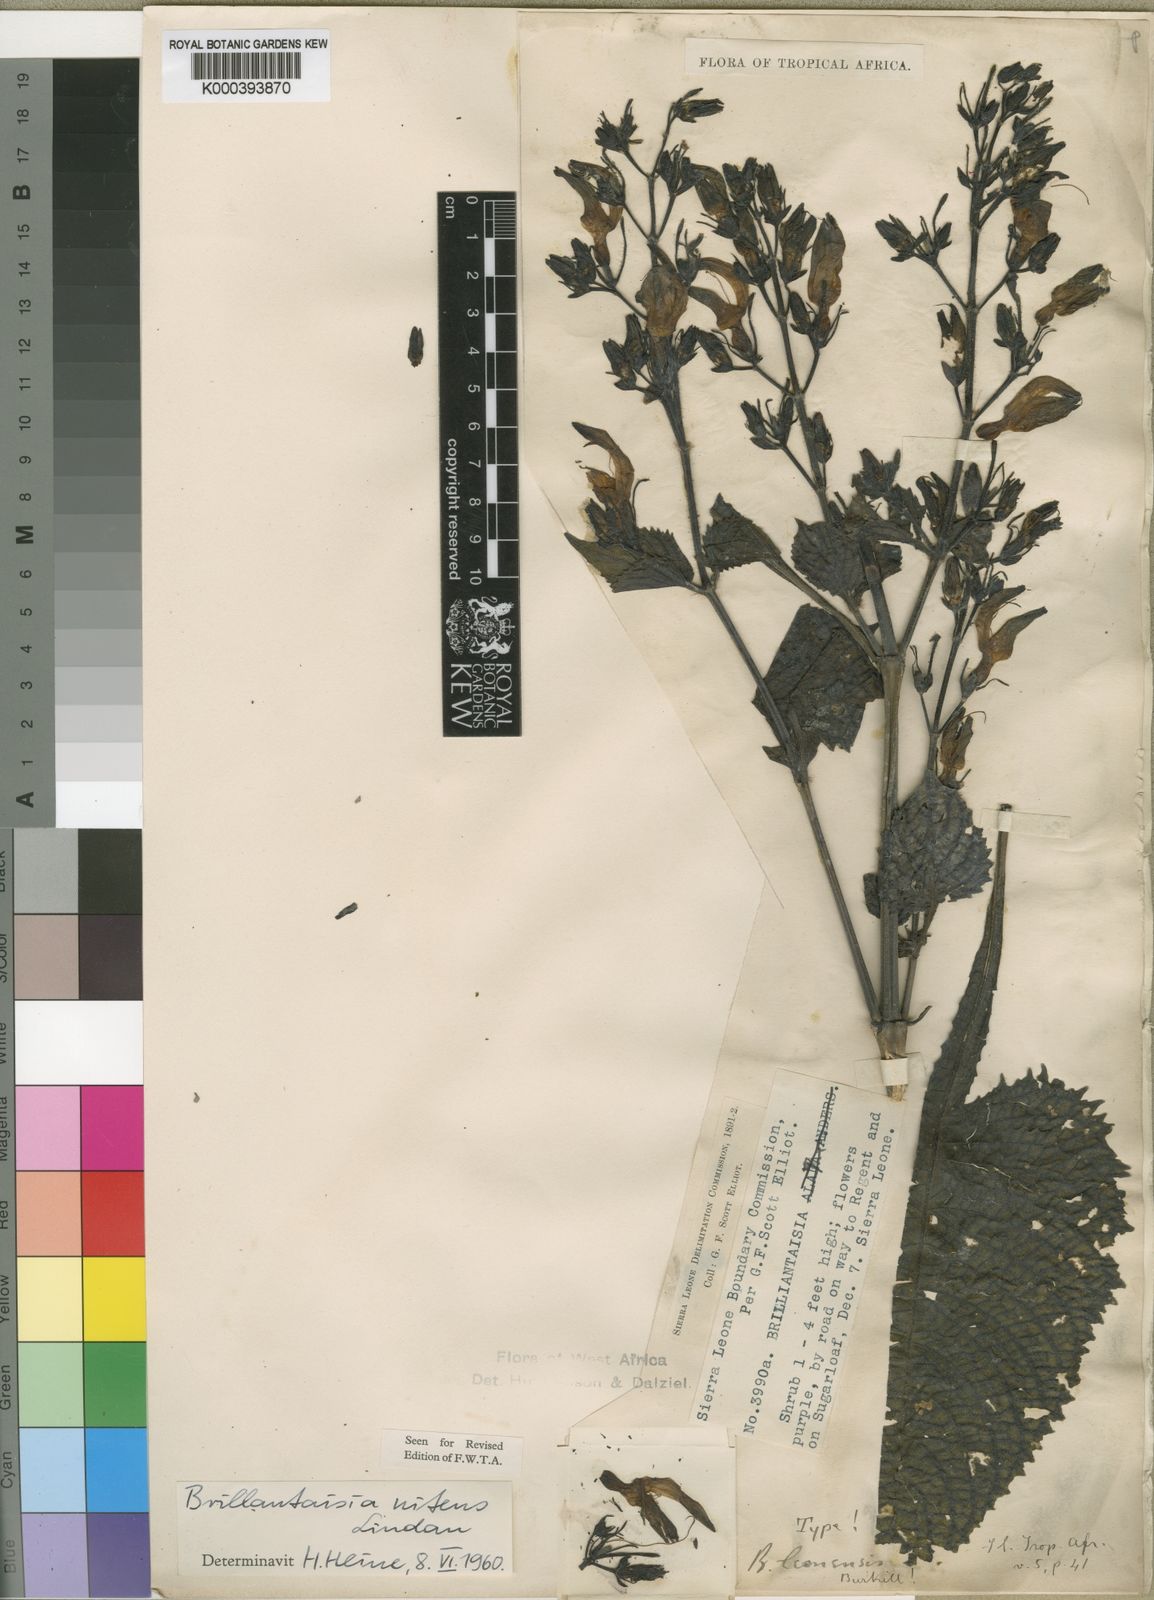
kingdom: Plantae
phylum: Tracheophyta
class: Magnoliopsida
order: Lamiales
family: Acanthaceae
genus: Brillantaisia
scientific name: Brillantaisia owariensis
